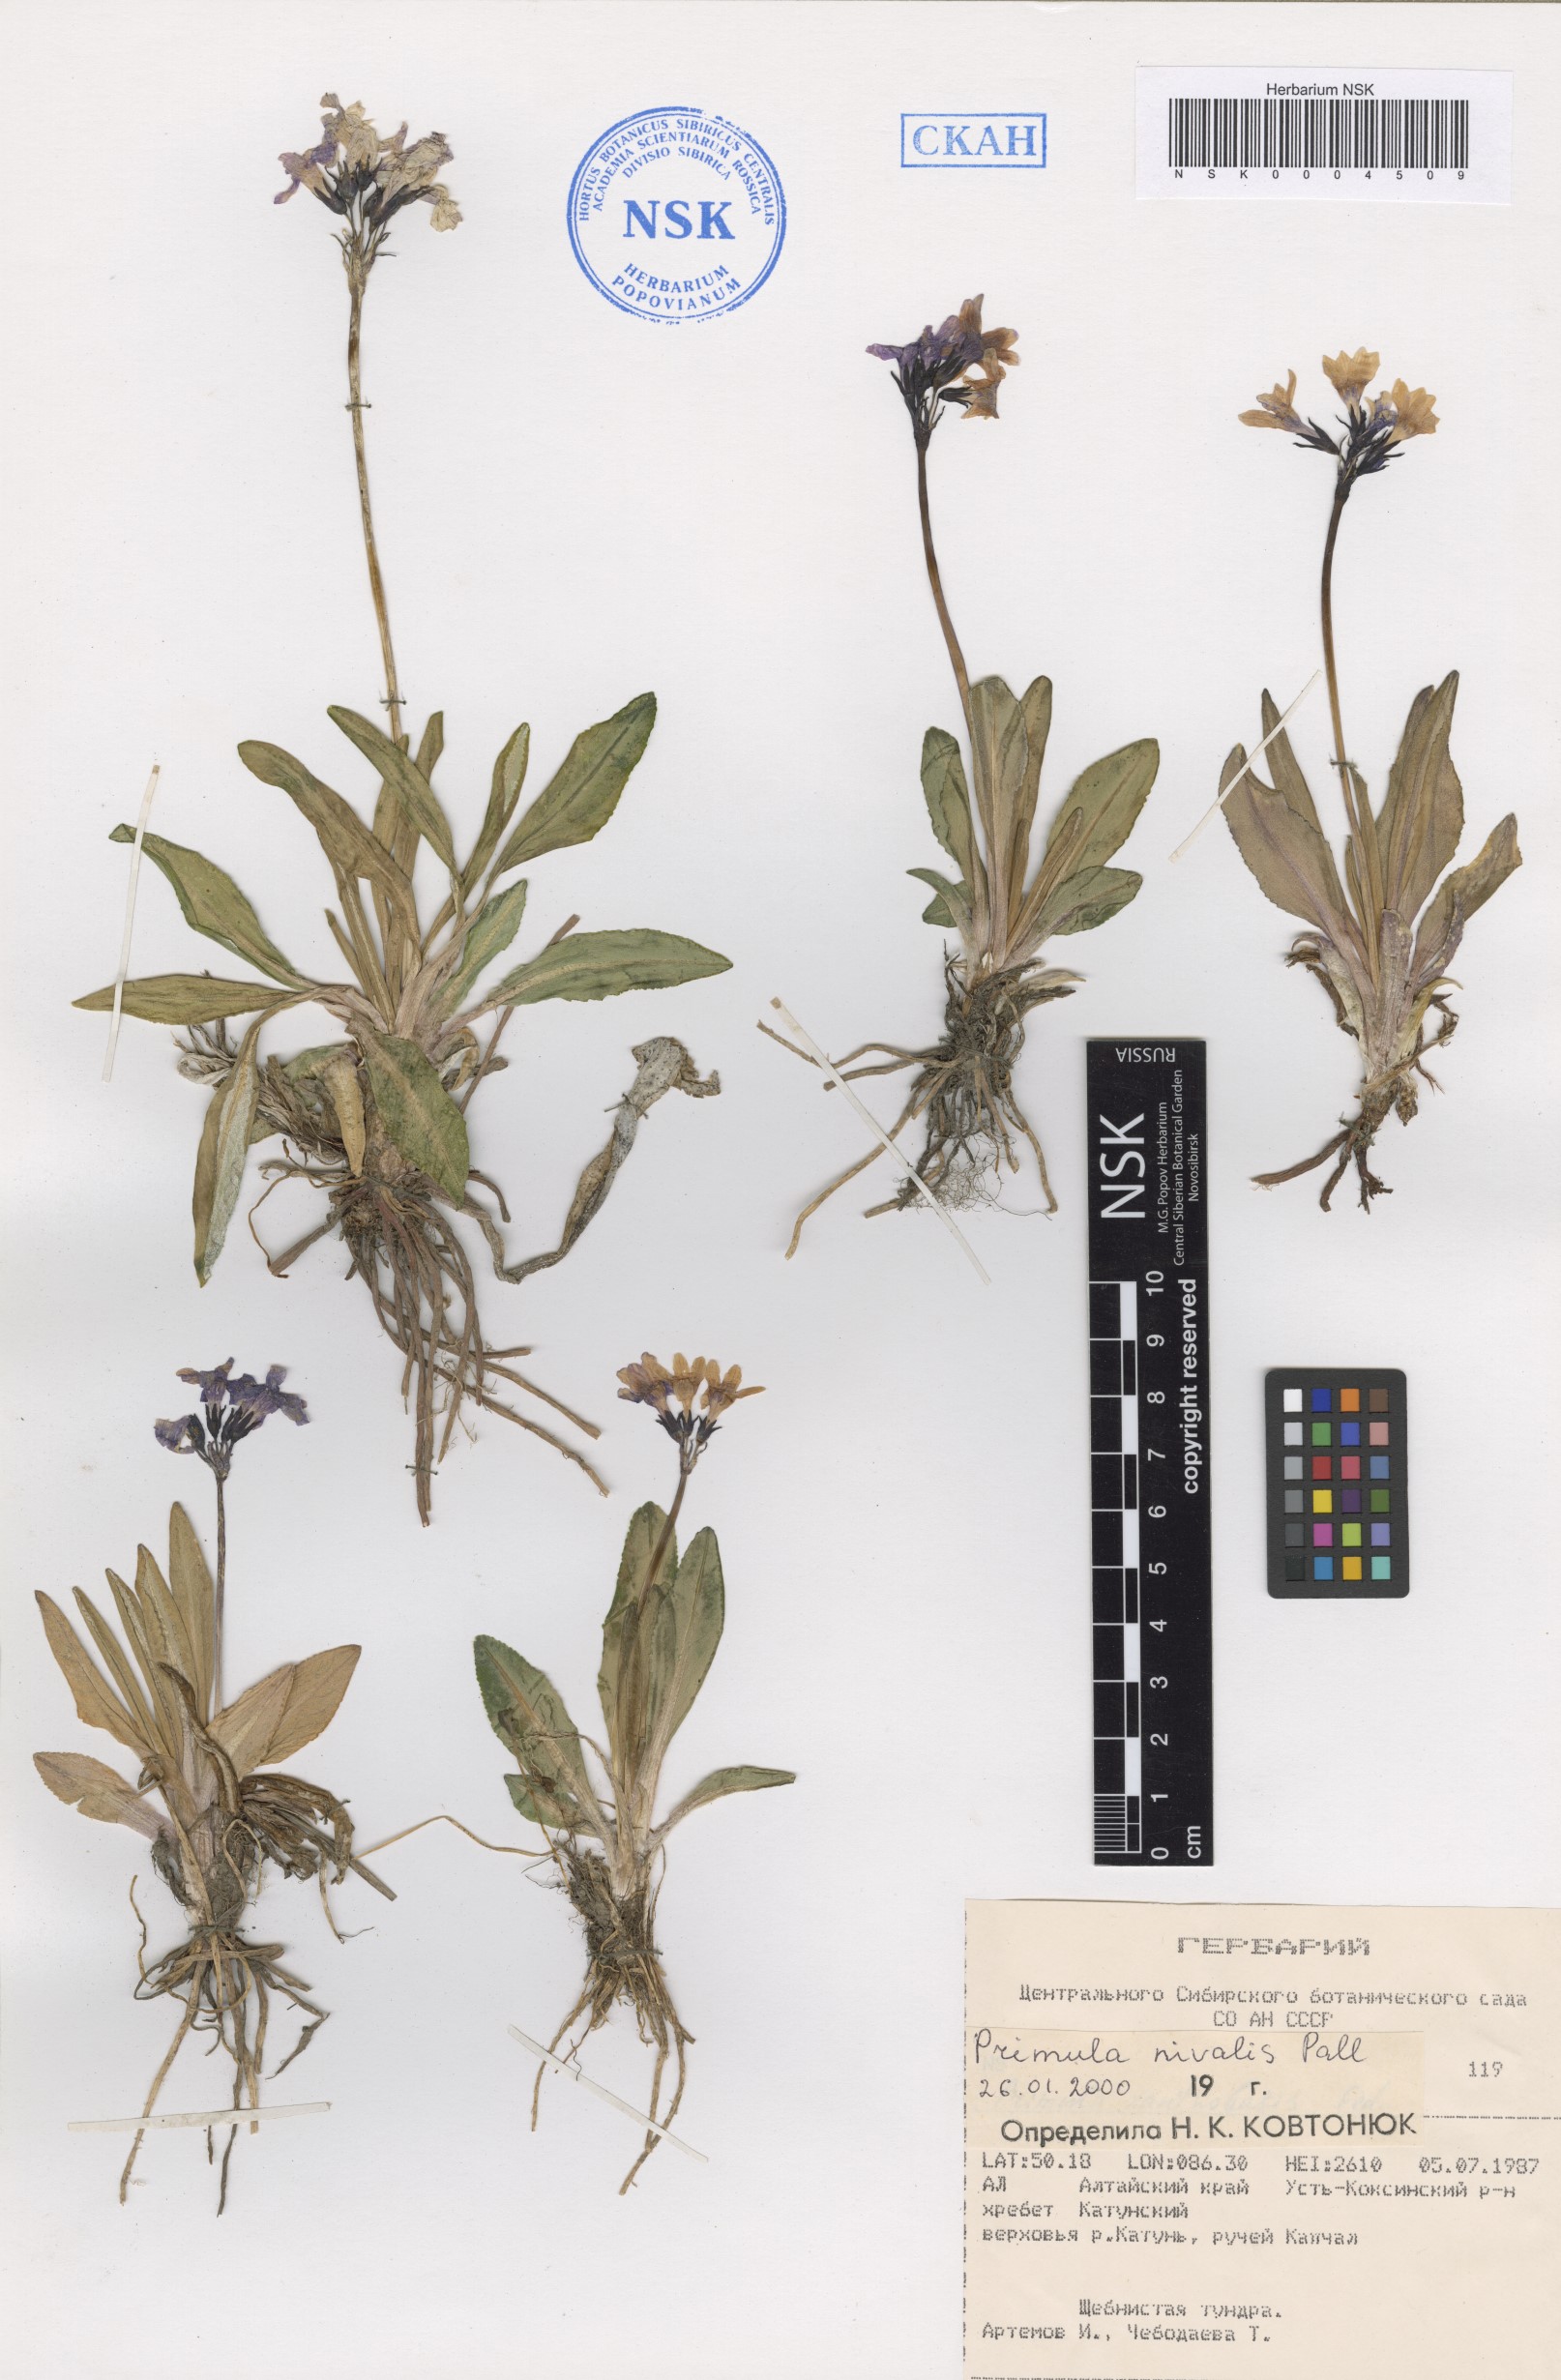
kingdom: Plantae
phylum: Tracheophyta
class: Magnoliopsida
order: Ericales
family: Primulaceae
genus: Primula
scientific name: Primula nivalis
